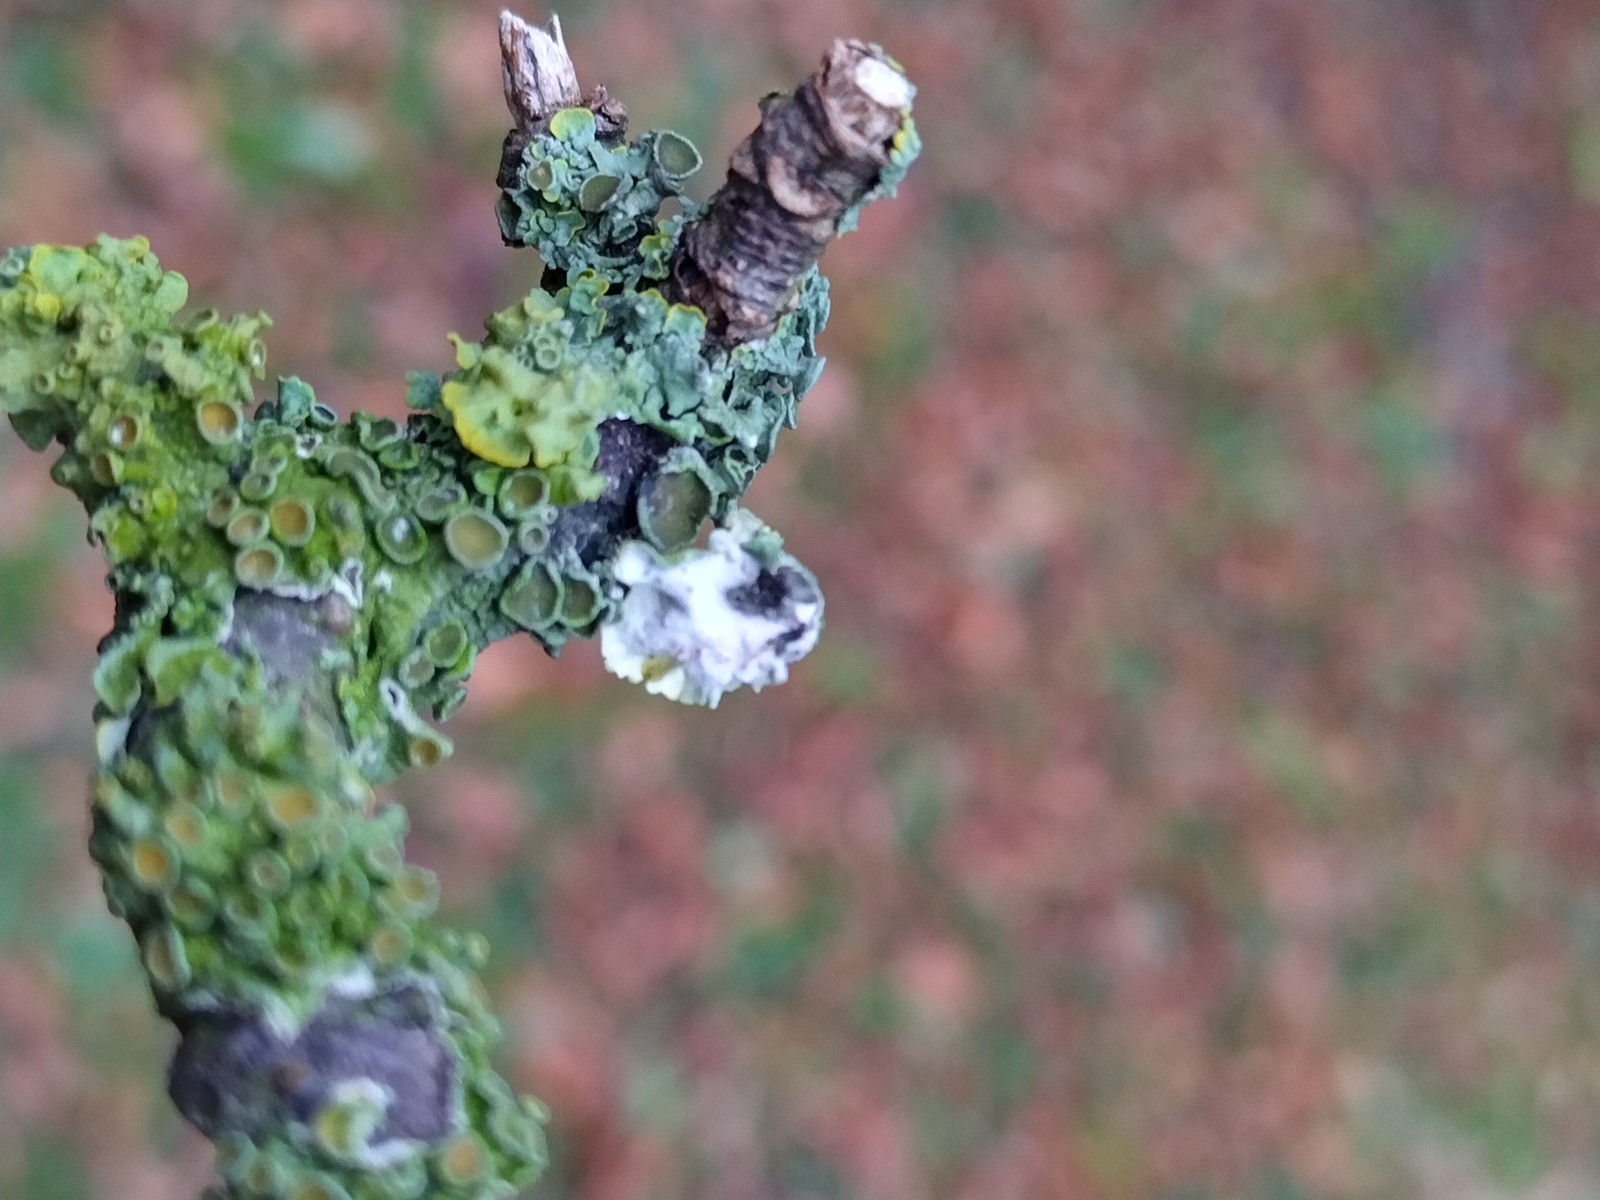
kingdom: Fungi
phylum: Ascomycota
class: Lecanoromycetes
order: Teloschistales
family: Teloschistaceae
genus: Xanthoria
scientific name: Xanthoria parietina
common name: almindelig væggelav
